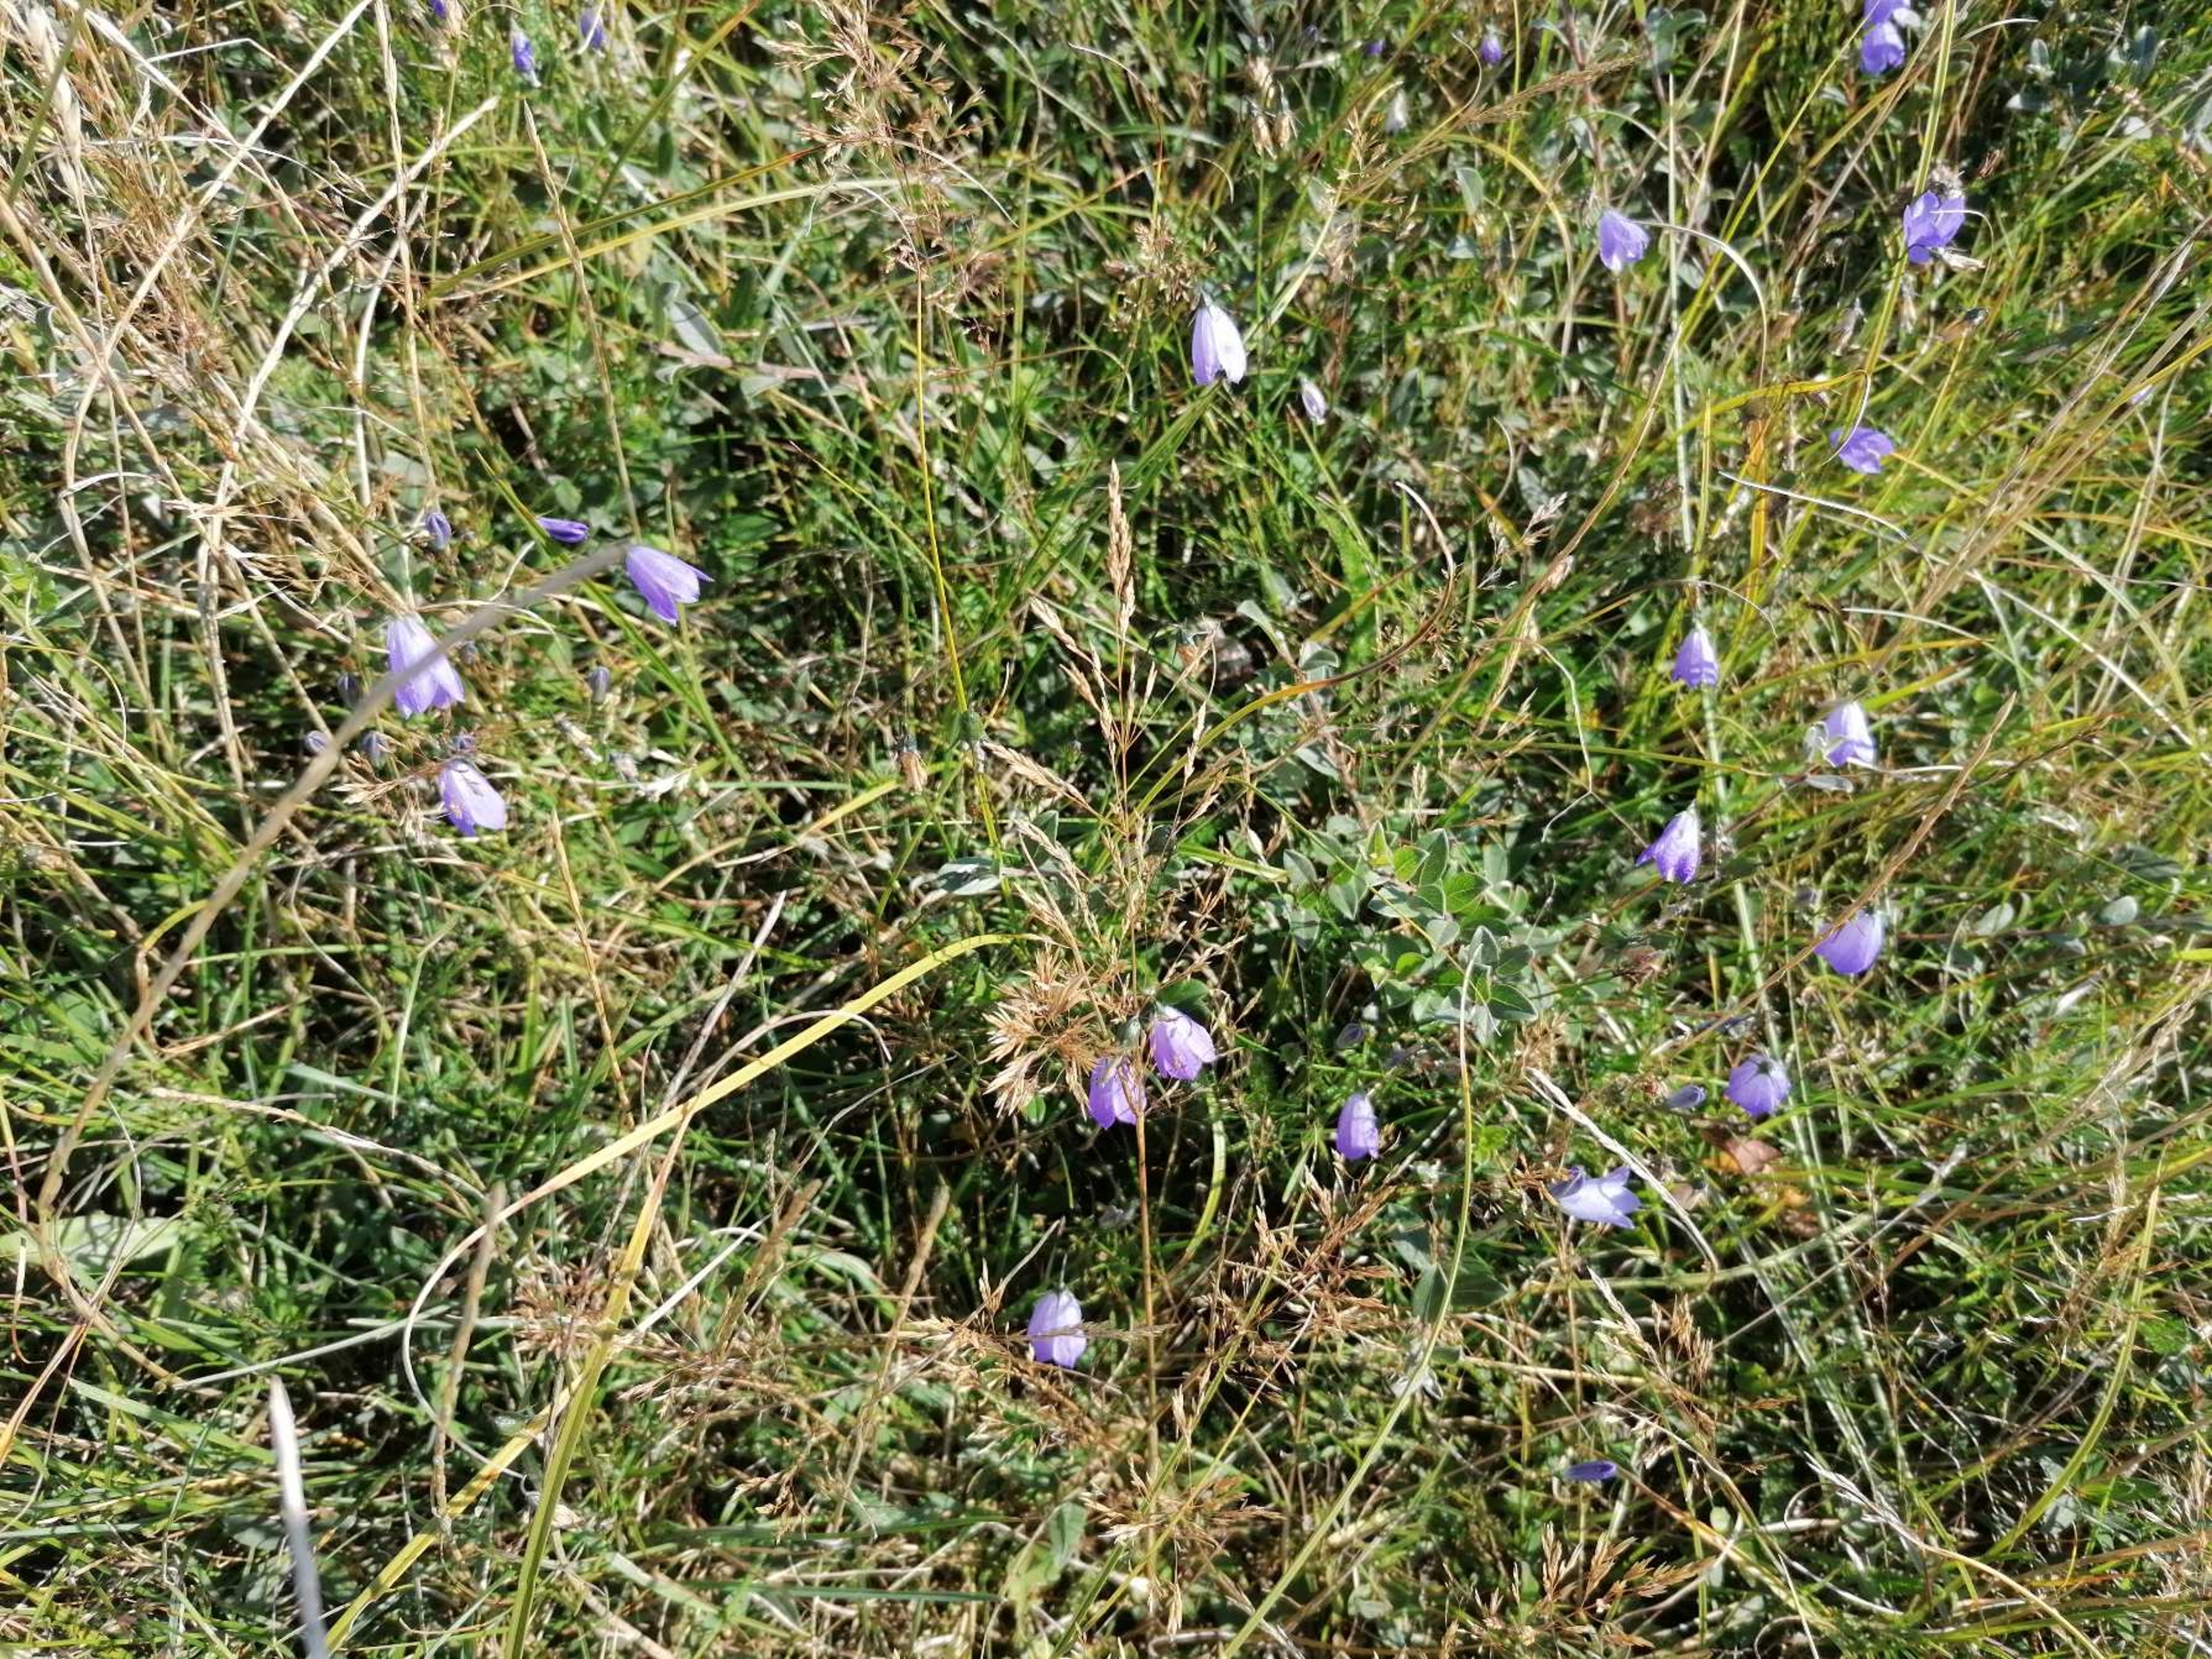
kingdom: Plantae
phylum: Tracheophyta
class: Magnoliopsida
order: Asterales
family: Campanulaceae
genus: Campanula
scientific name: Campanula rotundifolia
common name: Liden klokke
